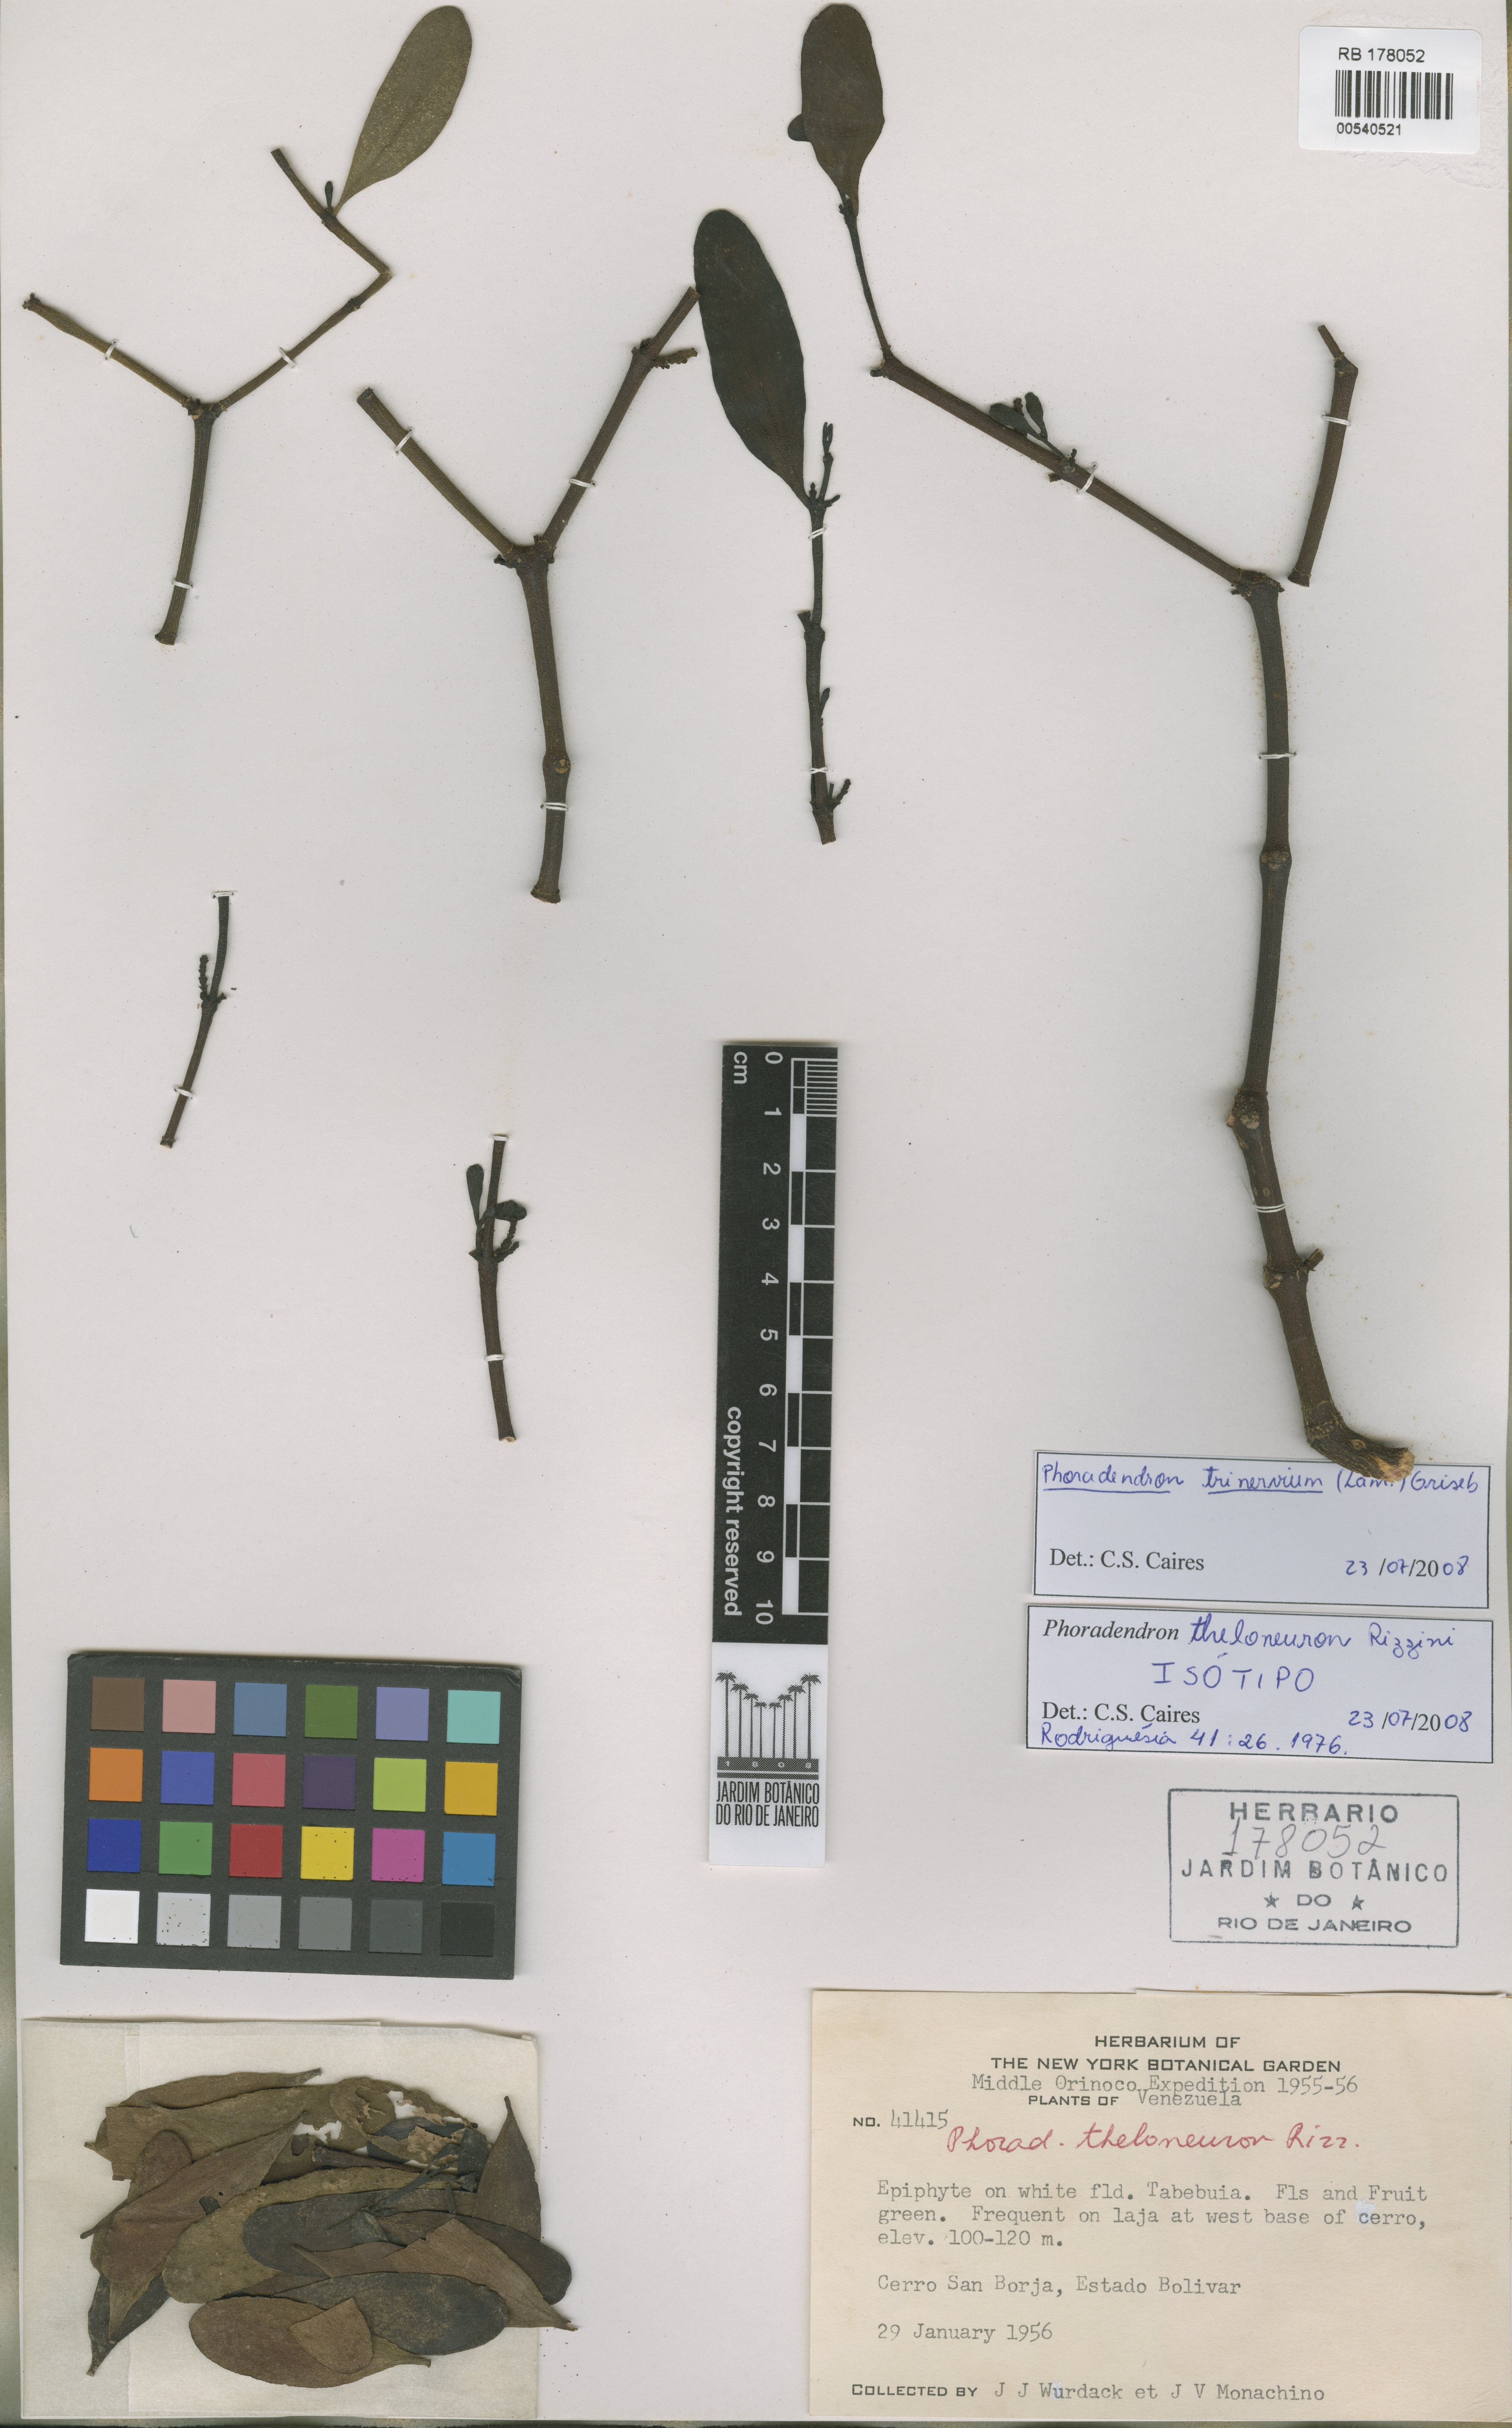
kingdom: Plantae
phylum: Tracheophyta
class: Magnoliopsida
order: Santalales
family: Viscaceae
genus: Phoradendron
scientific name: Phoradendron trinervium
